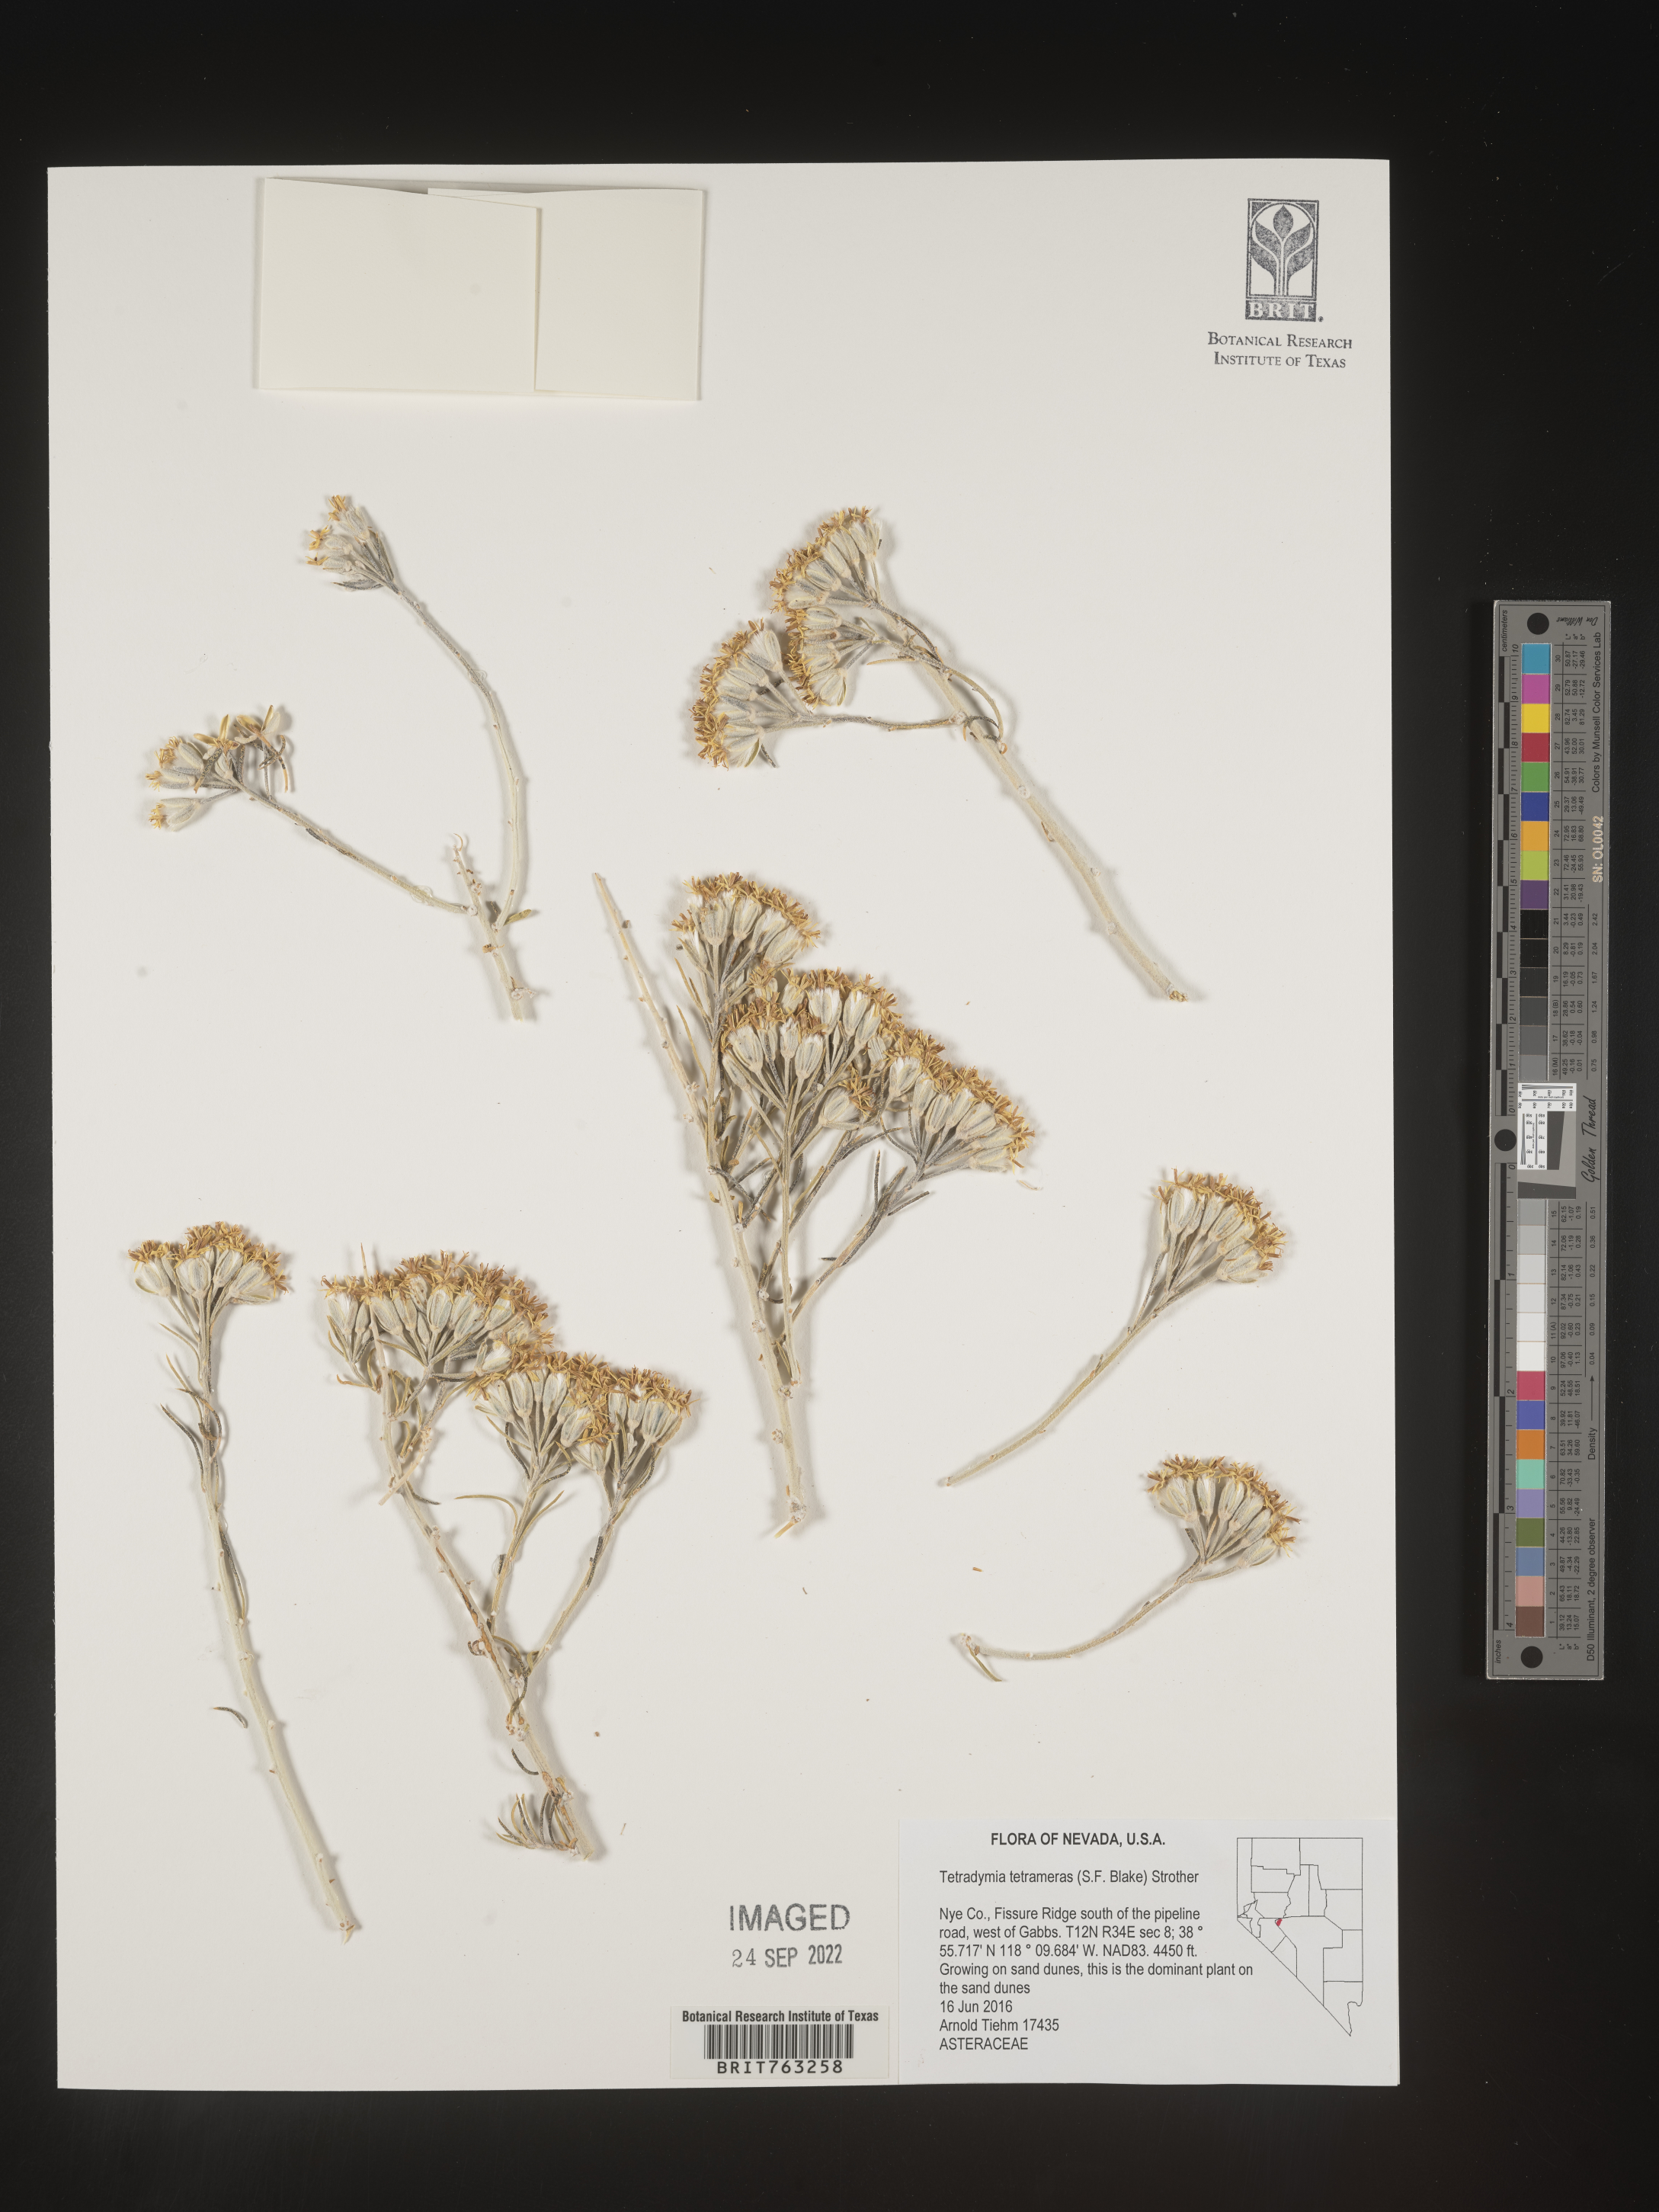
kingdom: Plantae
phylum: Tracheophyta
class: Magnoliopsida
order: Asterales
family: Asteraceae
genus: Tetradymia
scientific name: Tetradymia tetrameres
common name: Dune horsebrush
